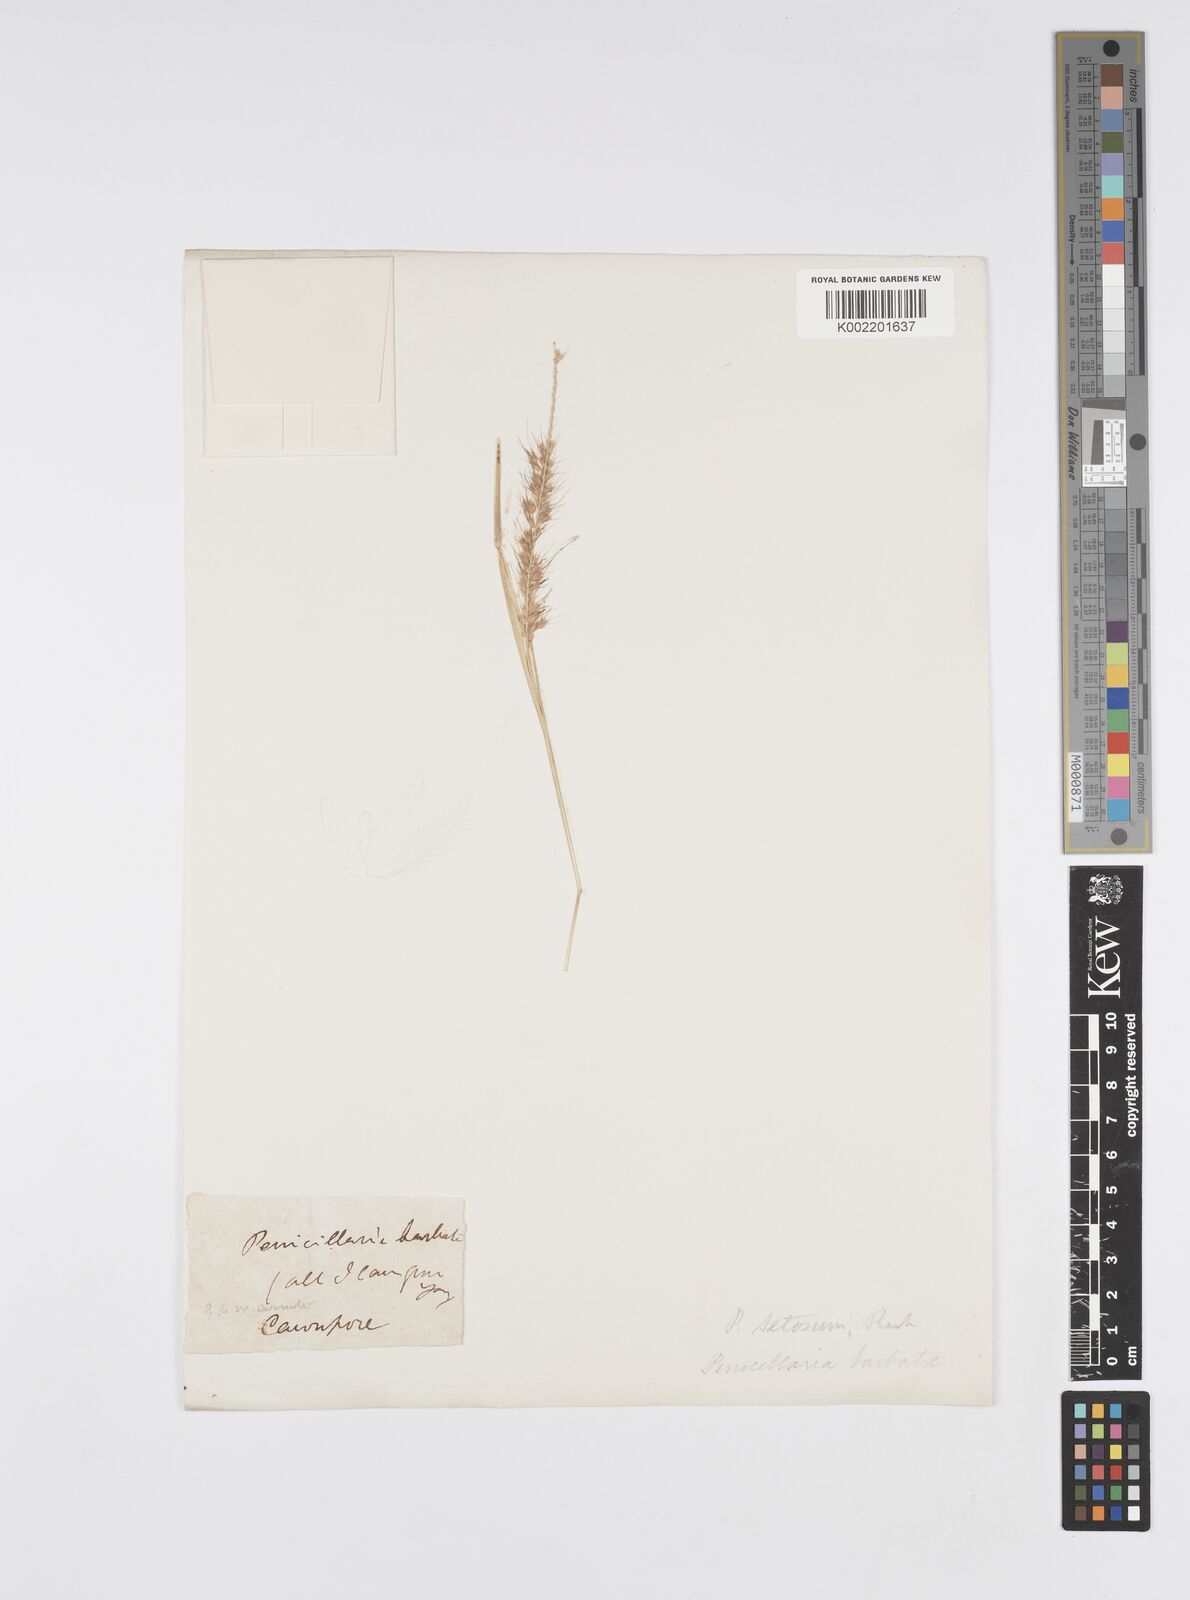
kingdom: Plantae
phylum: Tracheophyta
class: Liliopsida
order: Poales
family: Poaceae
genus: Setaria
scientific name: Setaria parviflora
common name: Knotroot bristle-grass
